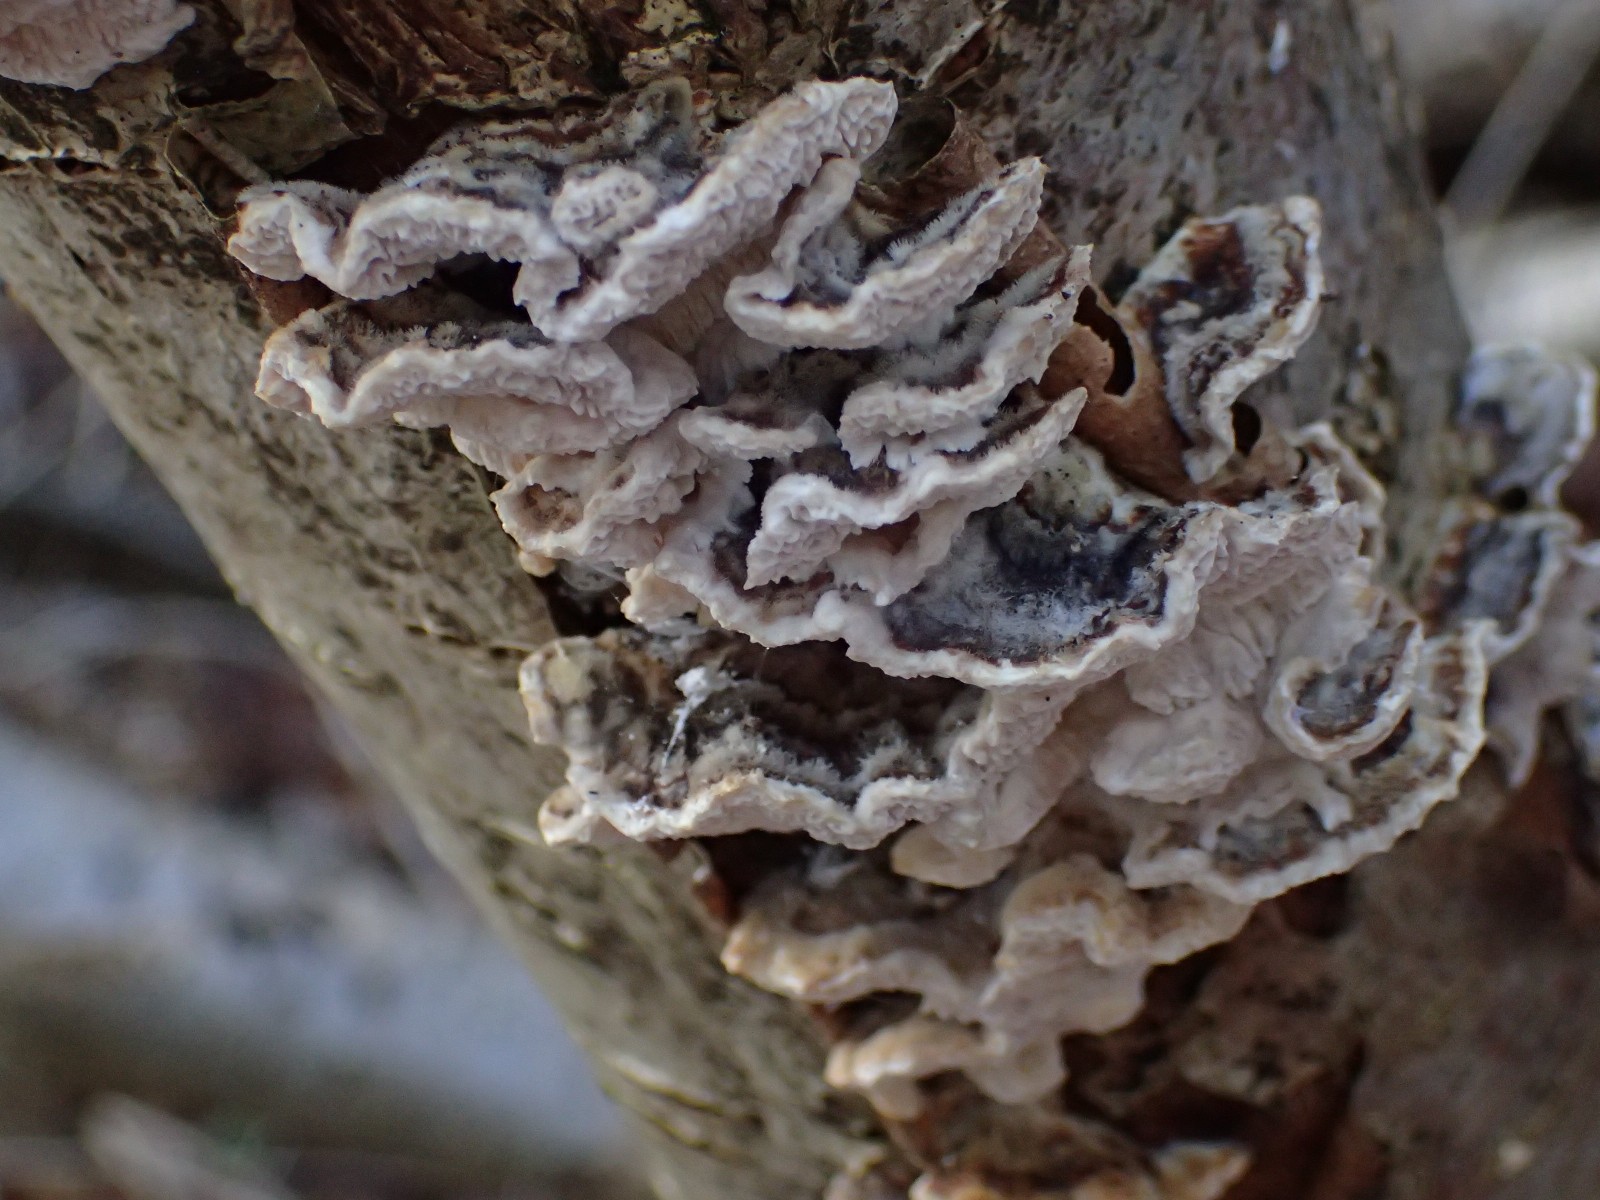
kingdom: Fungi
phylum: Basidiomycota
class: Agaricomycetes
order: Polyporales
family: Polyporaceae
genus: Trametes
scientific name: Trametes versicolor
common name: broget læderporesvamp
